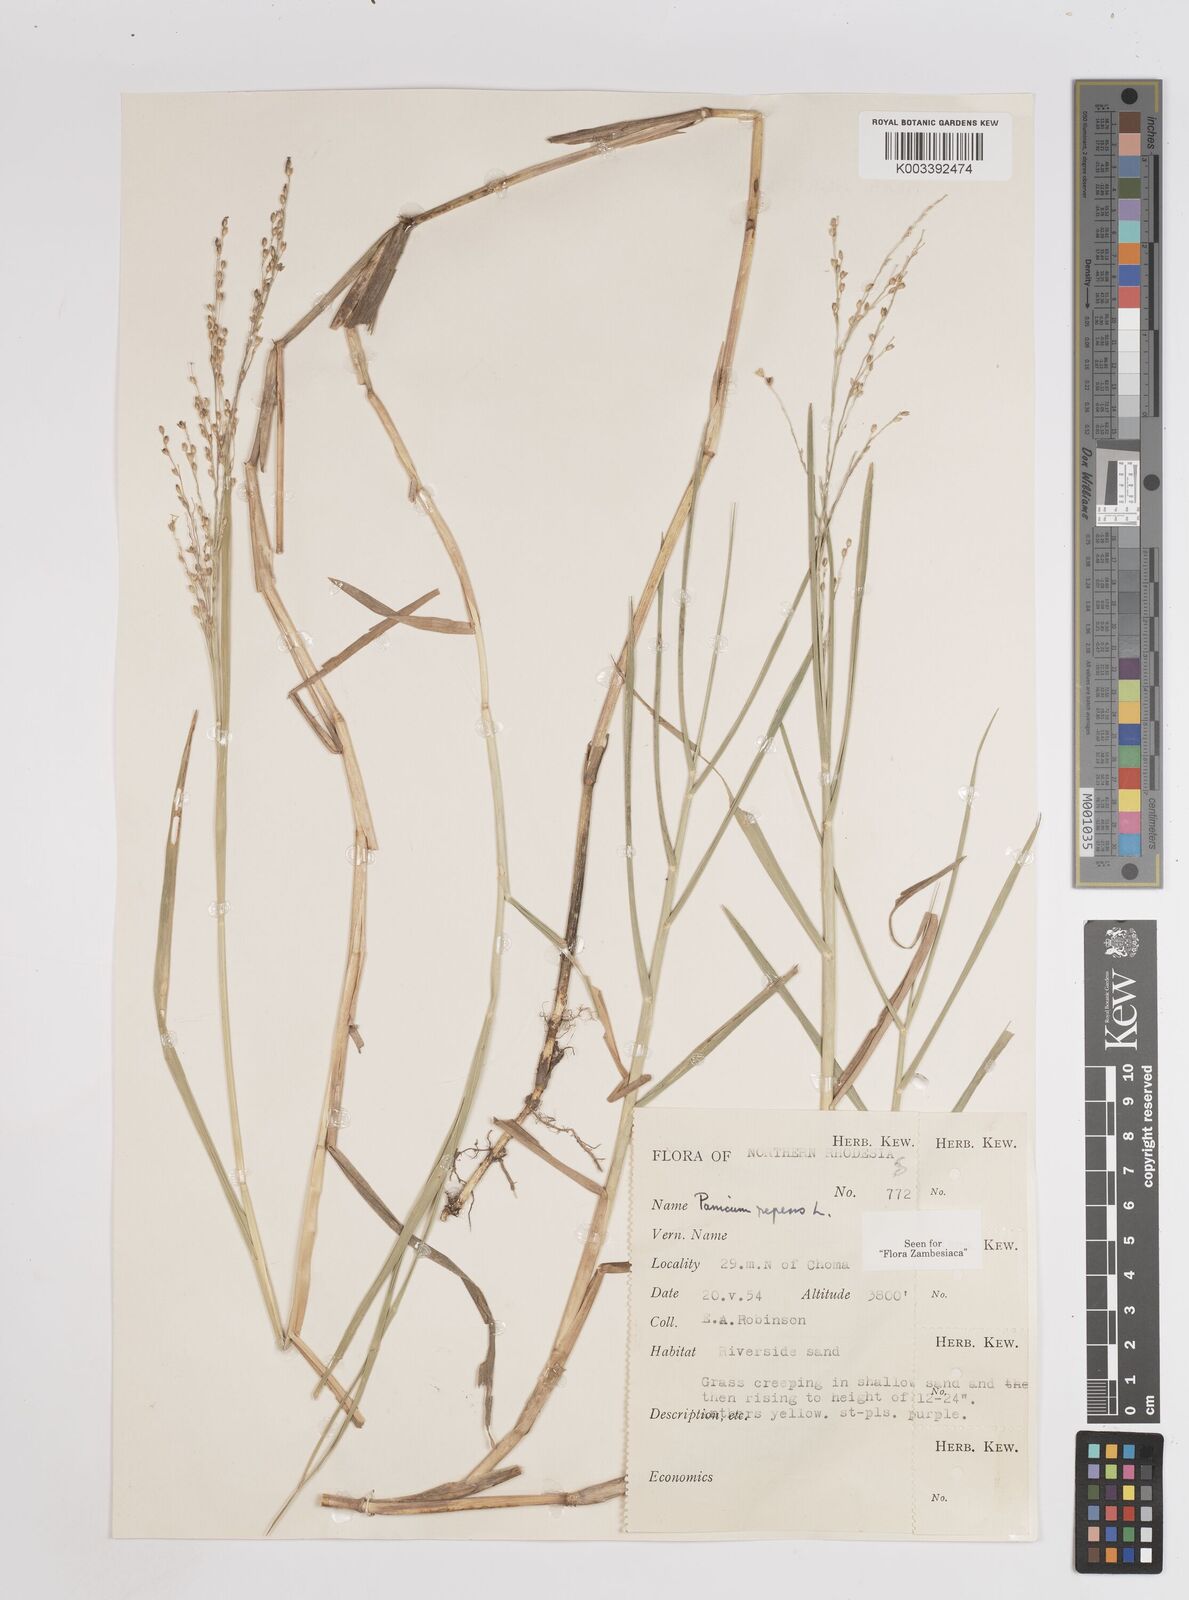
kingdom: Plantae
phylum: Tracheophyta
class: Liliopsida
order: Poales
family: Poaceae
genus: Panicum
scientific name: Panicum repens
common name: Torpedo grass
